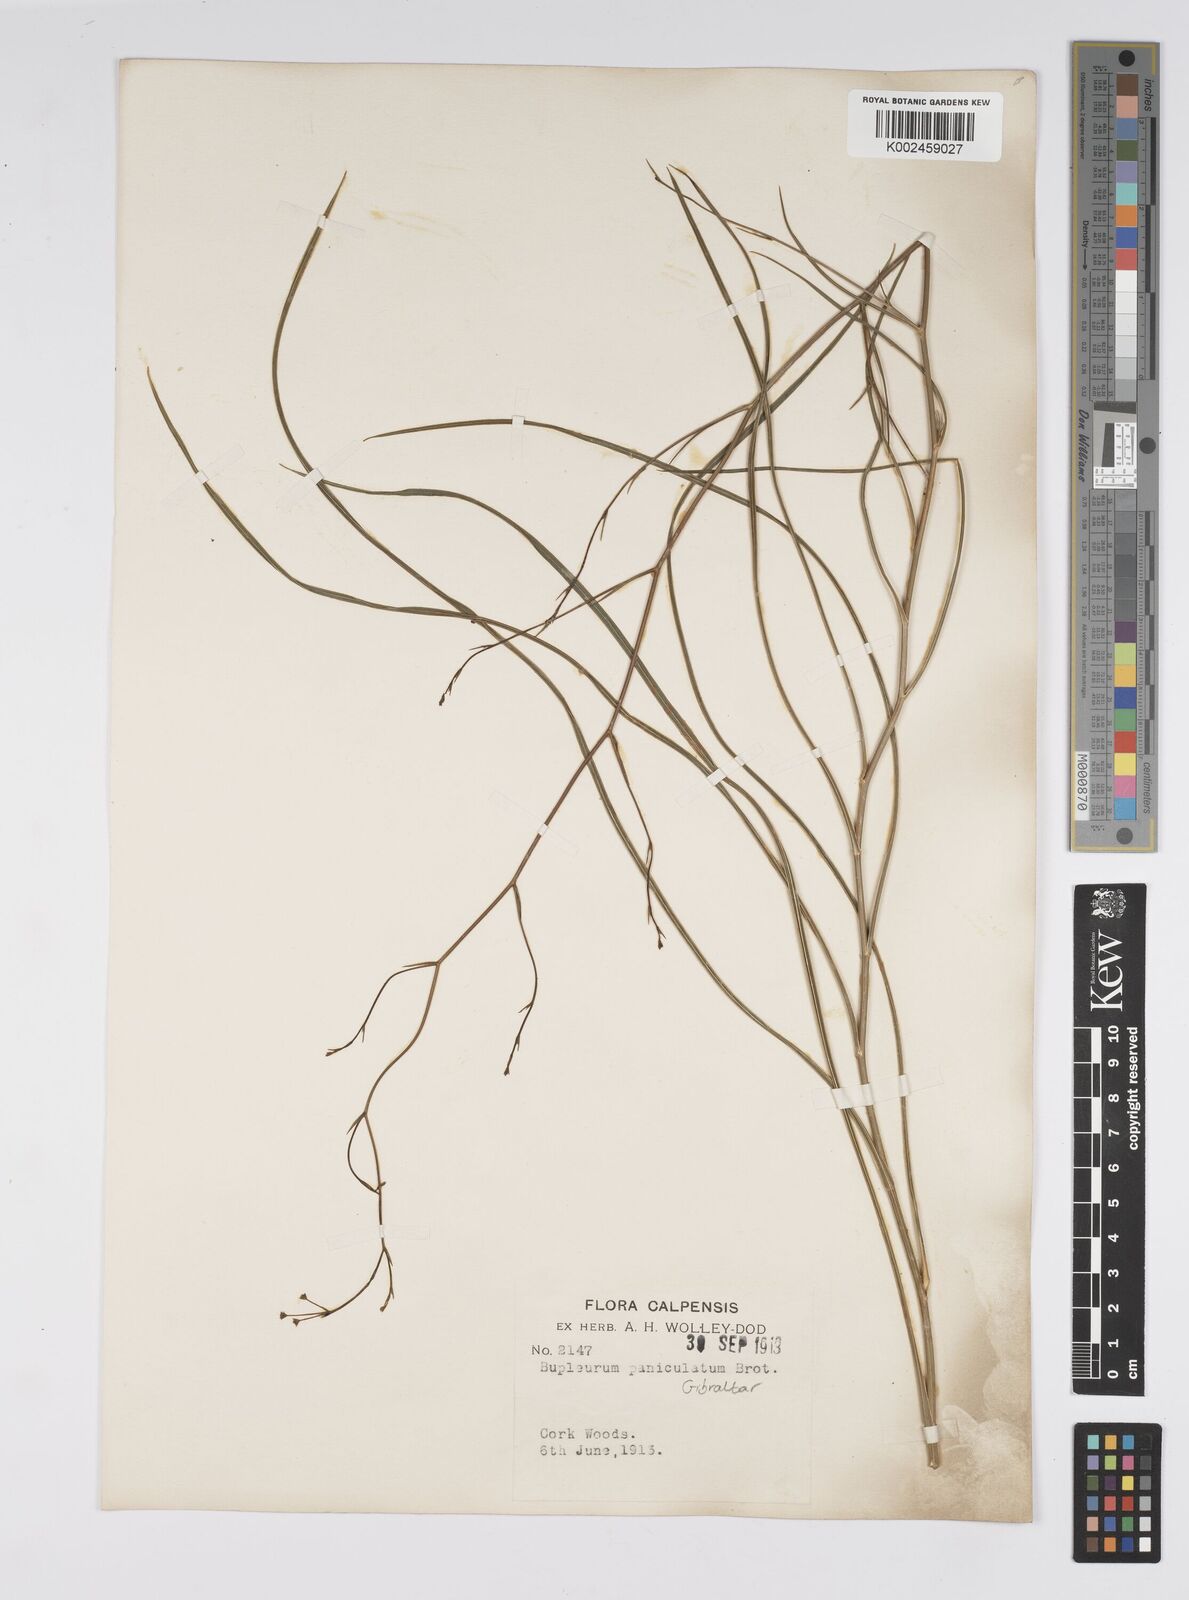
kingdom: Plantae
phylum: Tracheophyta
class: Magnoliopsida
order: Apiales
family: Apiaceae
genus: Bupleurum
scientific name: Bupleurum rigidum
